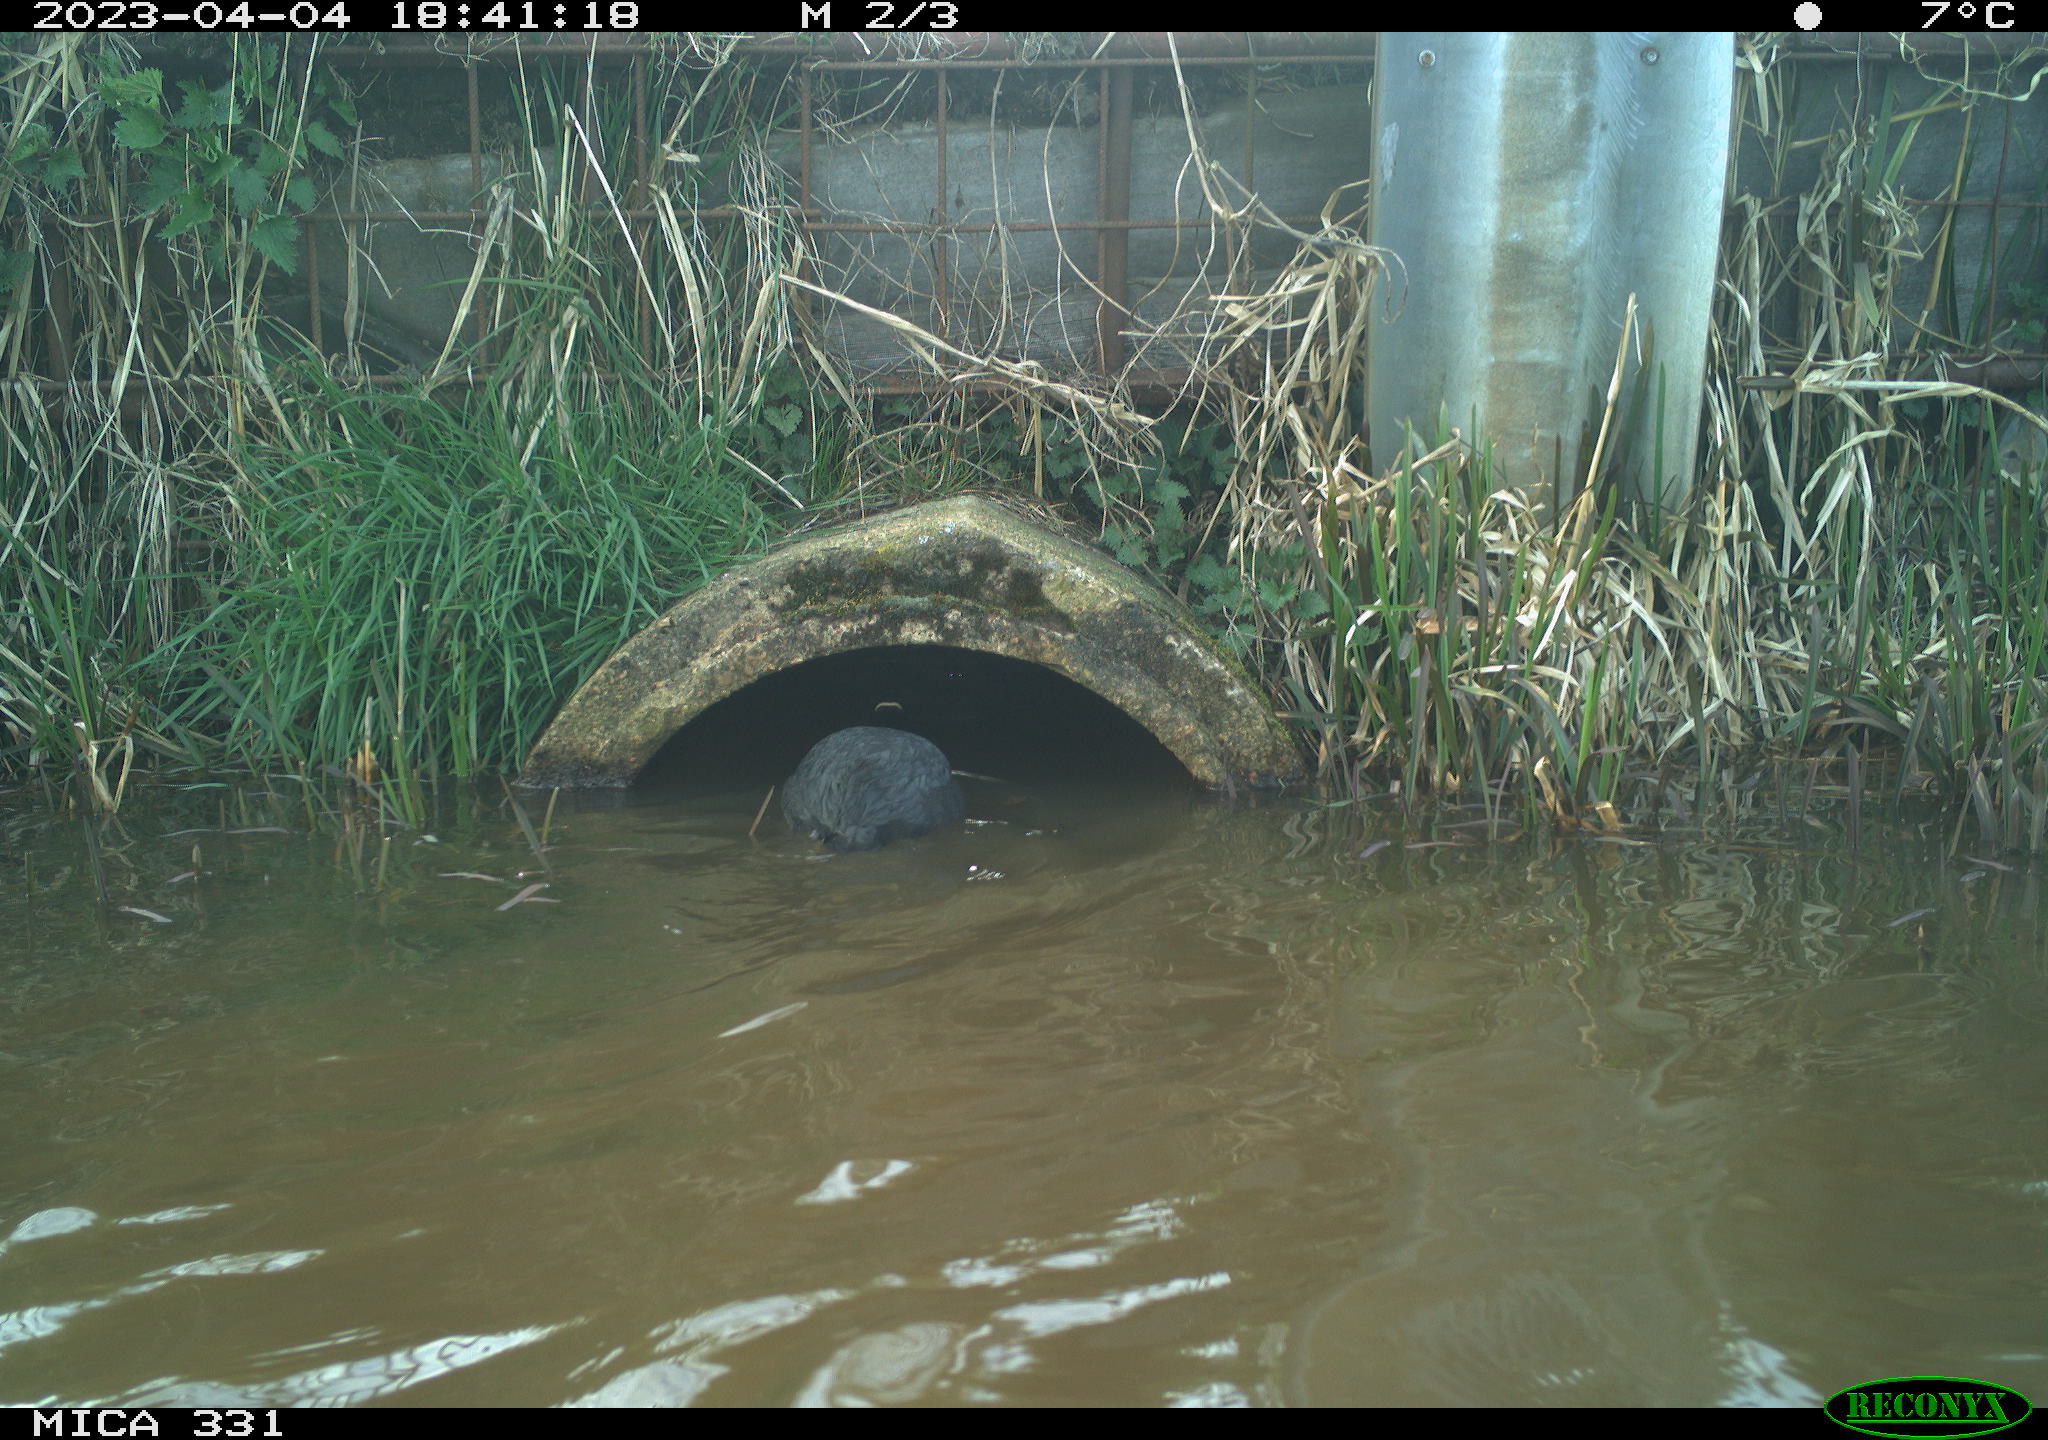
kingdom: Animalia
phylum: Chordata
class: Aves
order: Gruiformes
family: Rallidae
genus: Fulica
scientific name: Fulica atra
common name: Eurasian coot
